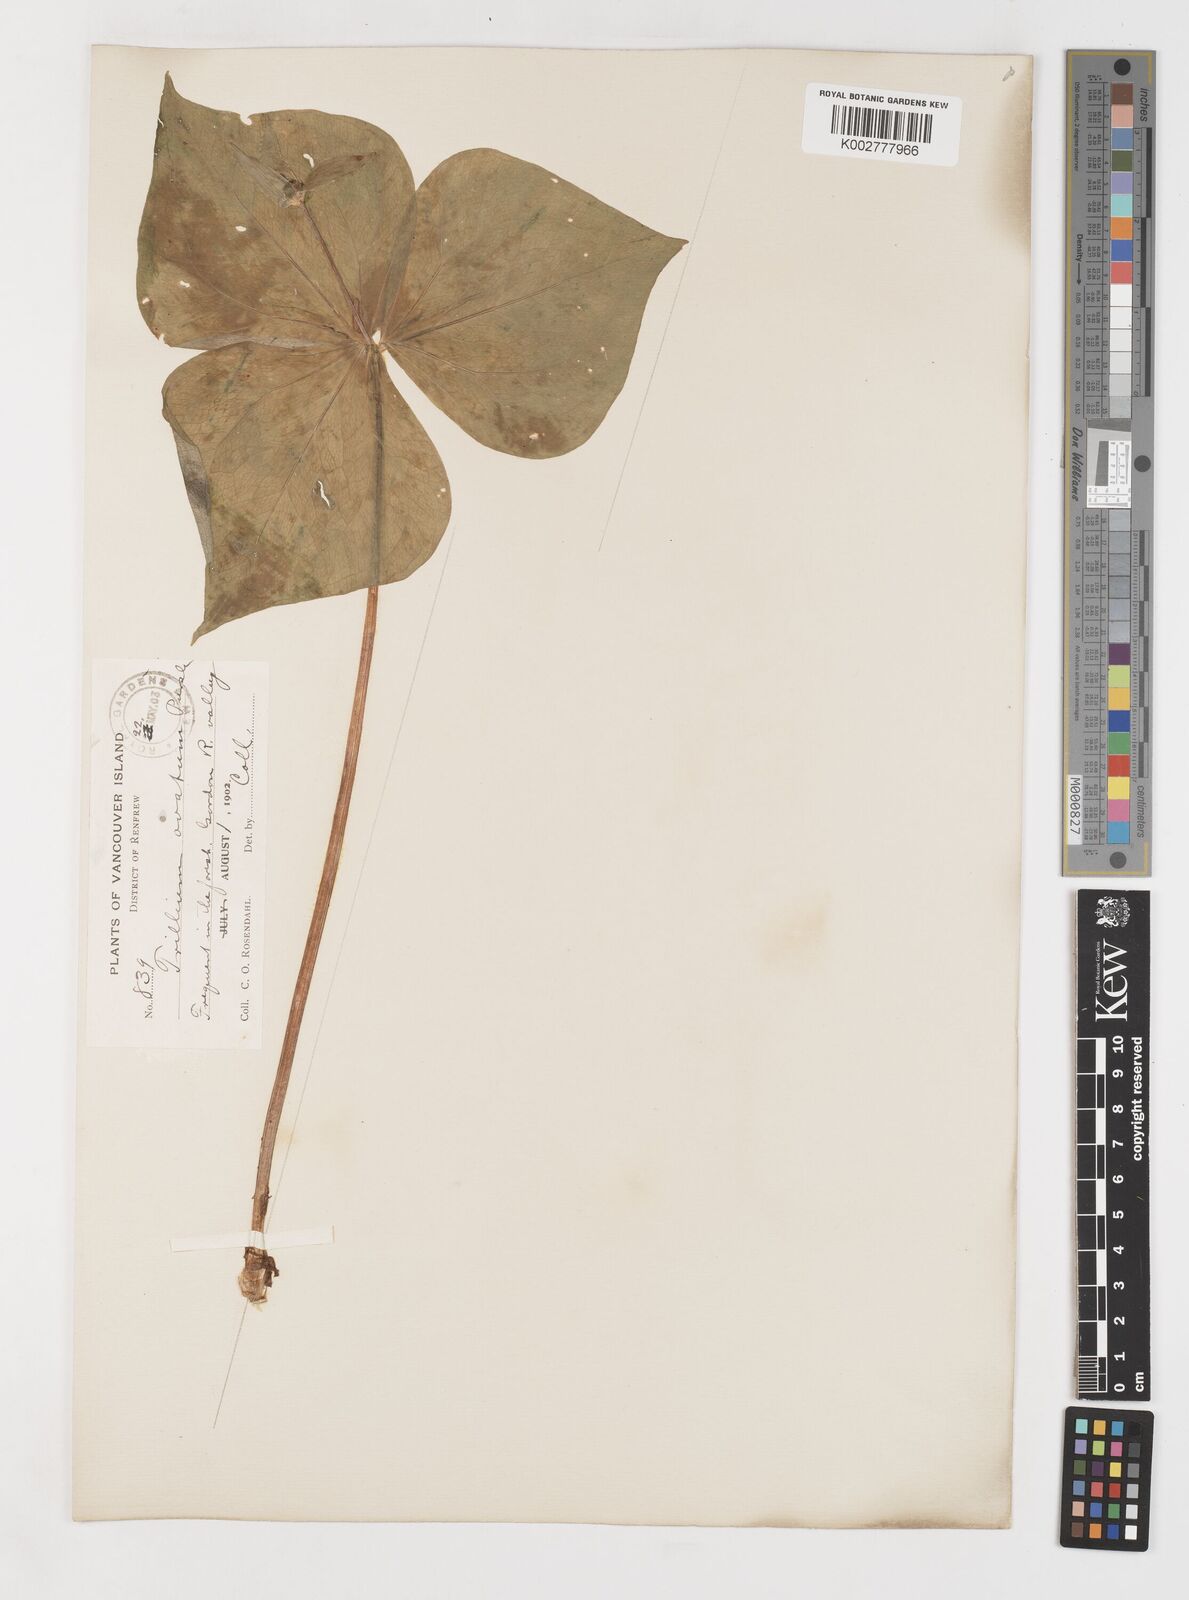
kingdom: Plantae
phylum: Tracheophyta
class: Liliopsida
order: Liliales
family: Melanthiaceae
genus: Trillium
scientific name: Trillium ovatum
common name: Pacific trillium
